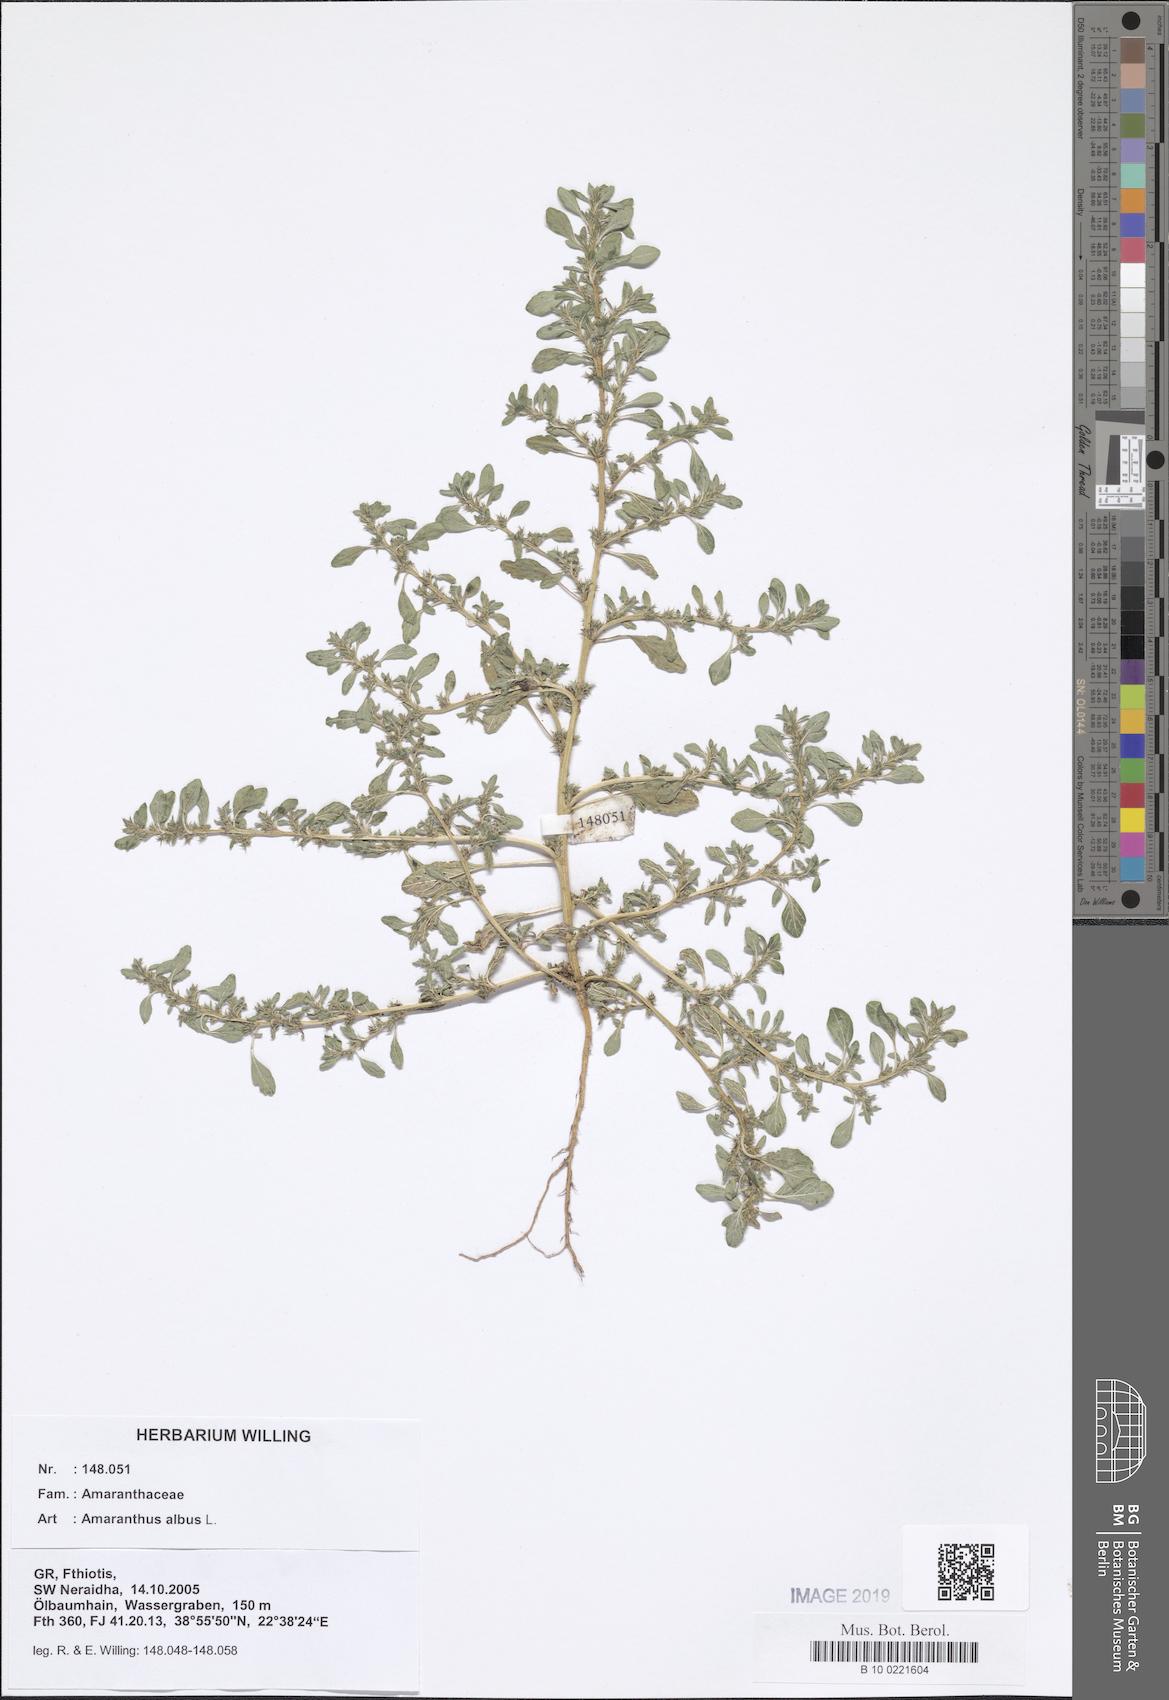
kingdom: Plantae
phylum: Tracheophyta
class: Magnoliopsida
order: Caryophyllales
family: Amaranthaceae
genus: Amaranthus
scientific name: Amaranthus albus
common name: White pigweed
